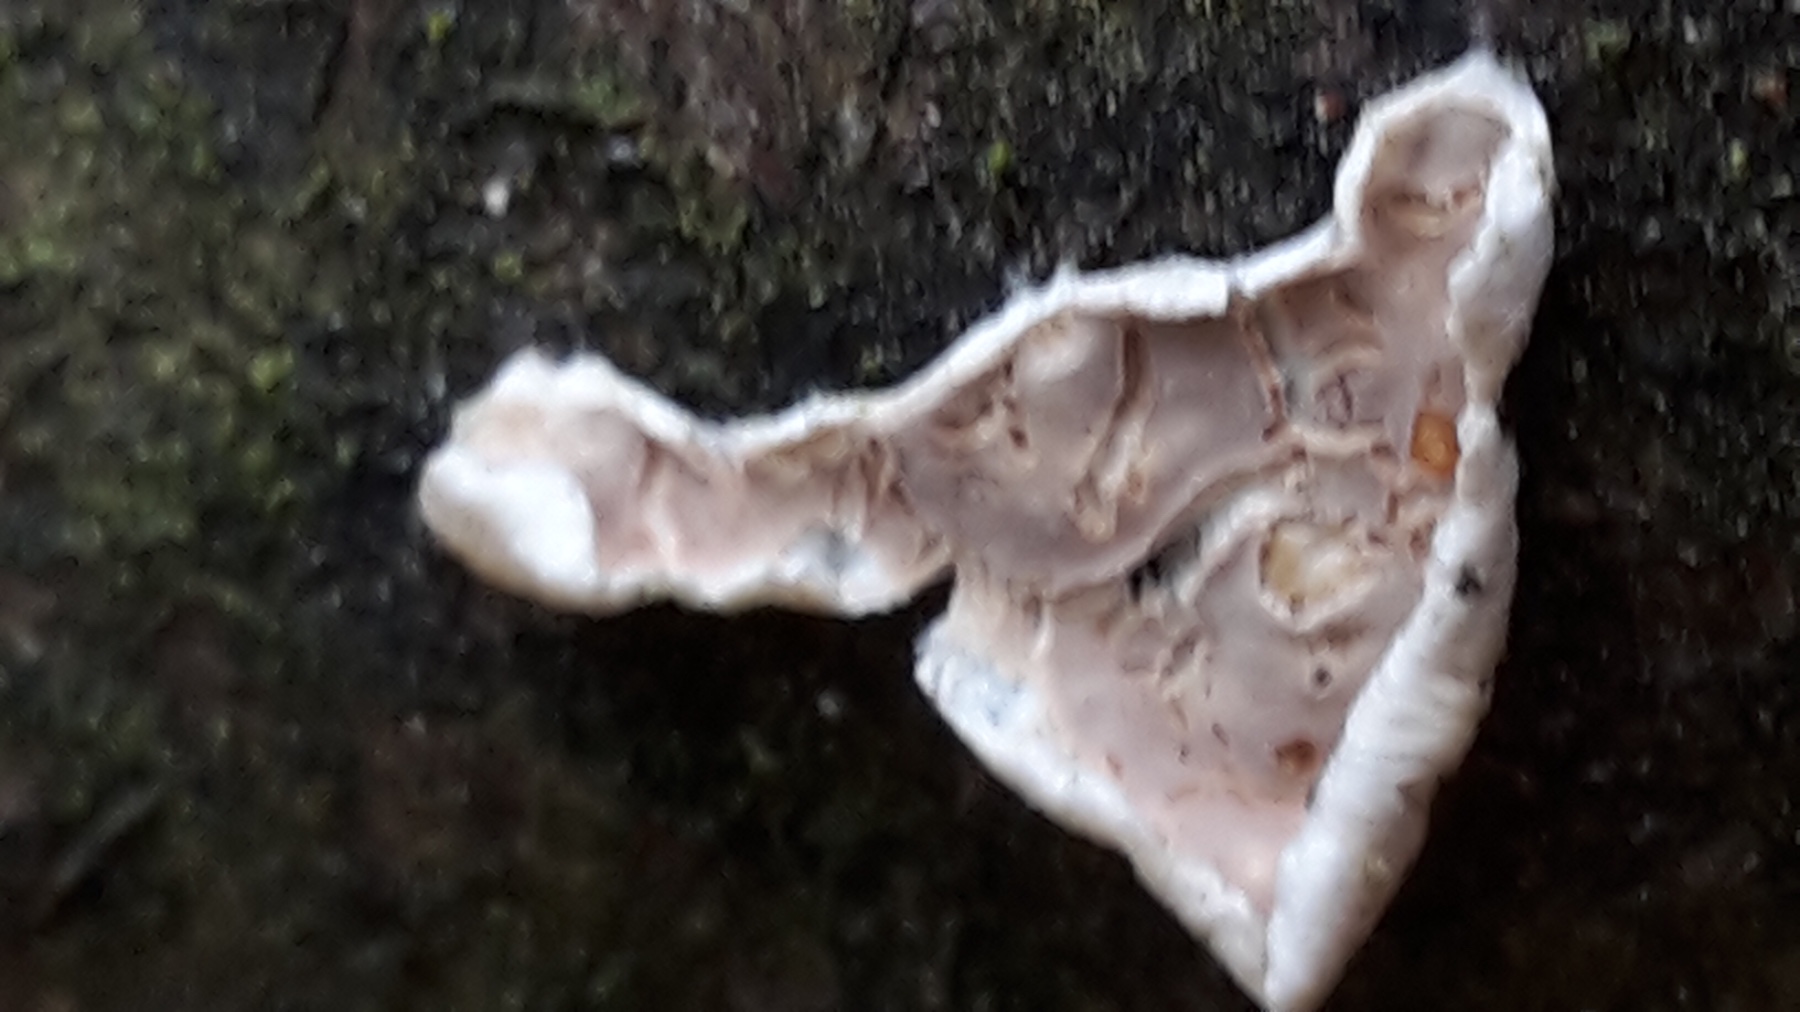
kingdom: Fungi
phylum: Basidiomycota
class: Agaricomycetes
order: Agaricales
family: Physalacriaceae
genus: Cylindrobasidium
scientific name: Cylindrobasidium evolvens
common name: sprækkehinde
